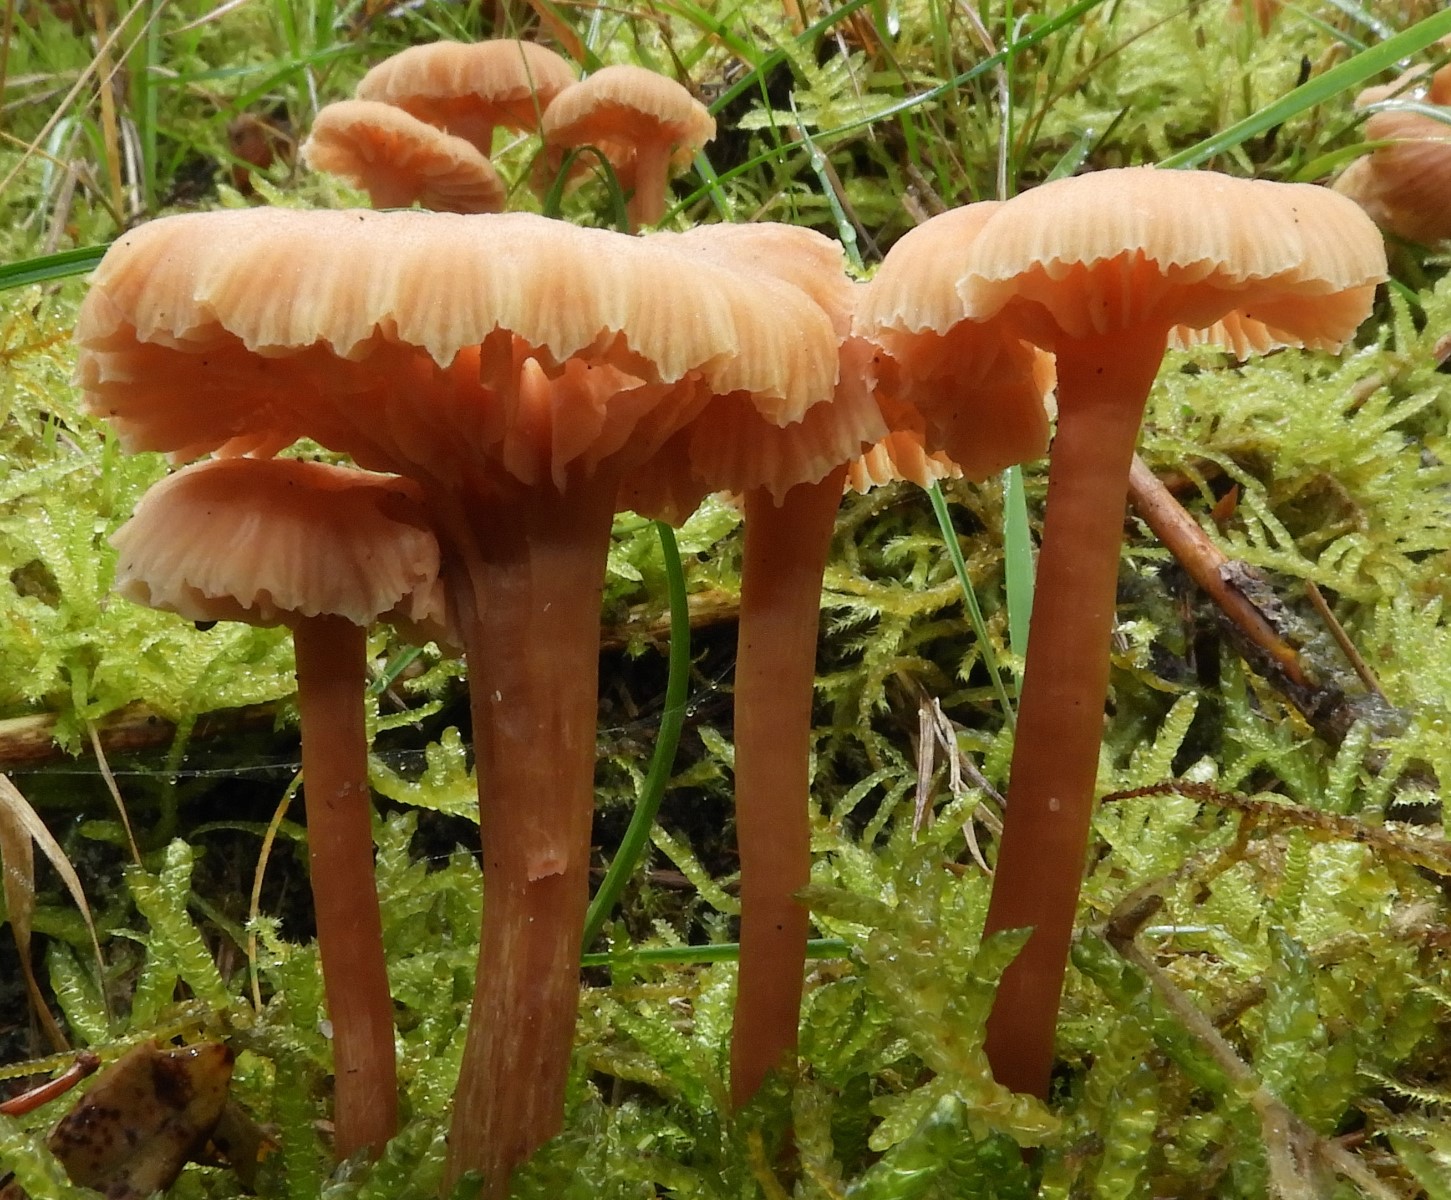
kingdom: Fungi
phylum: Basidiomycota
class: Agaricomycetes
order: Agaricales
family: Hydnangiaceae
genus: Laccaria
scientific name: Laccaria laccata
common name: rød ametysthat
